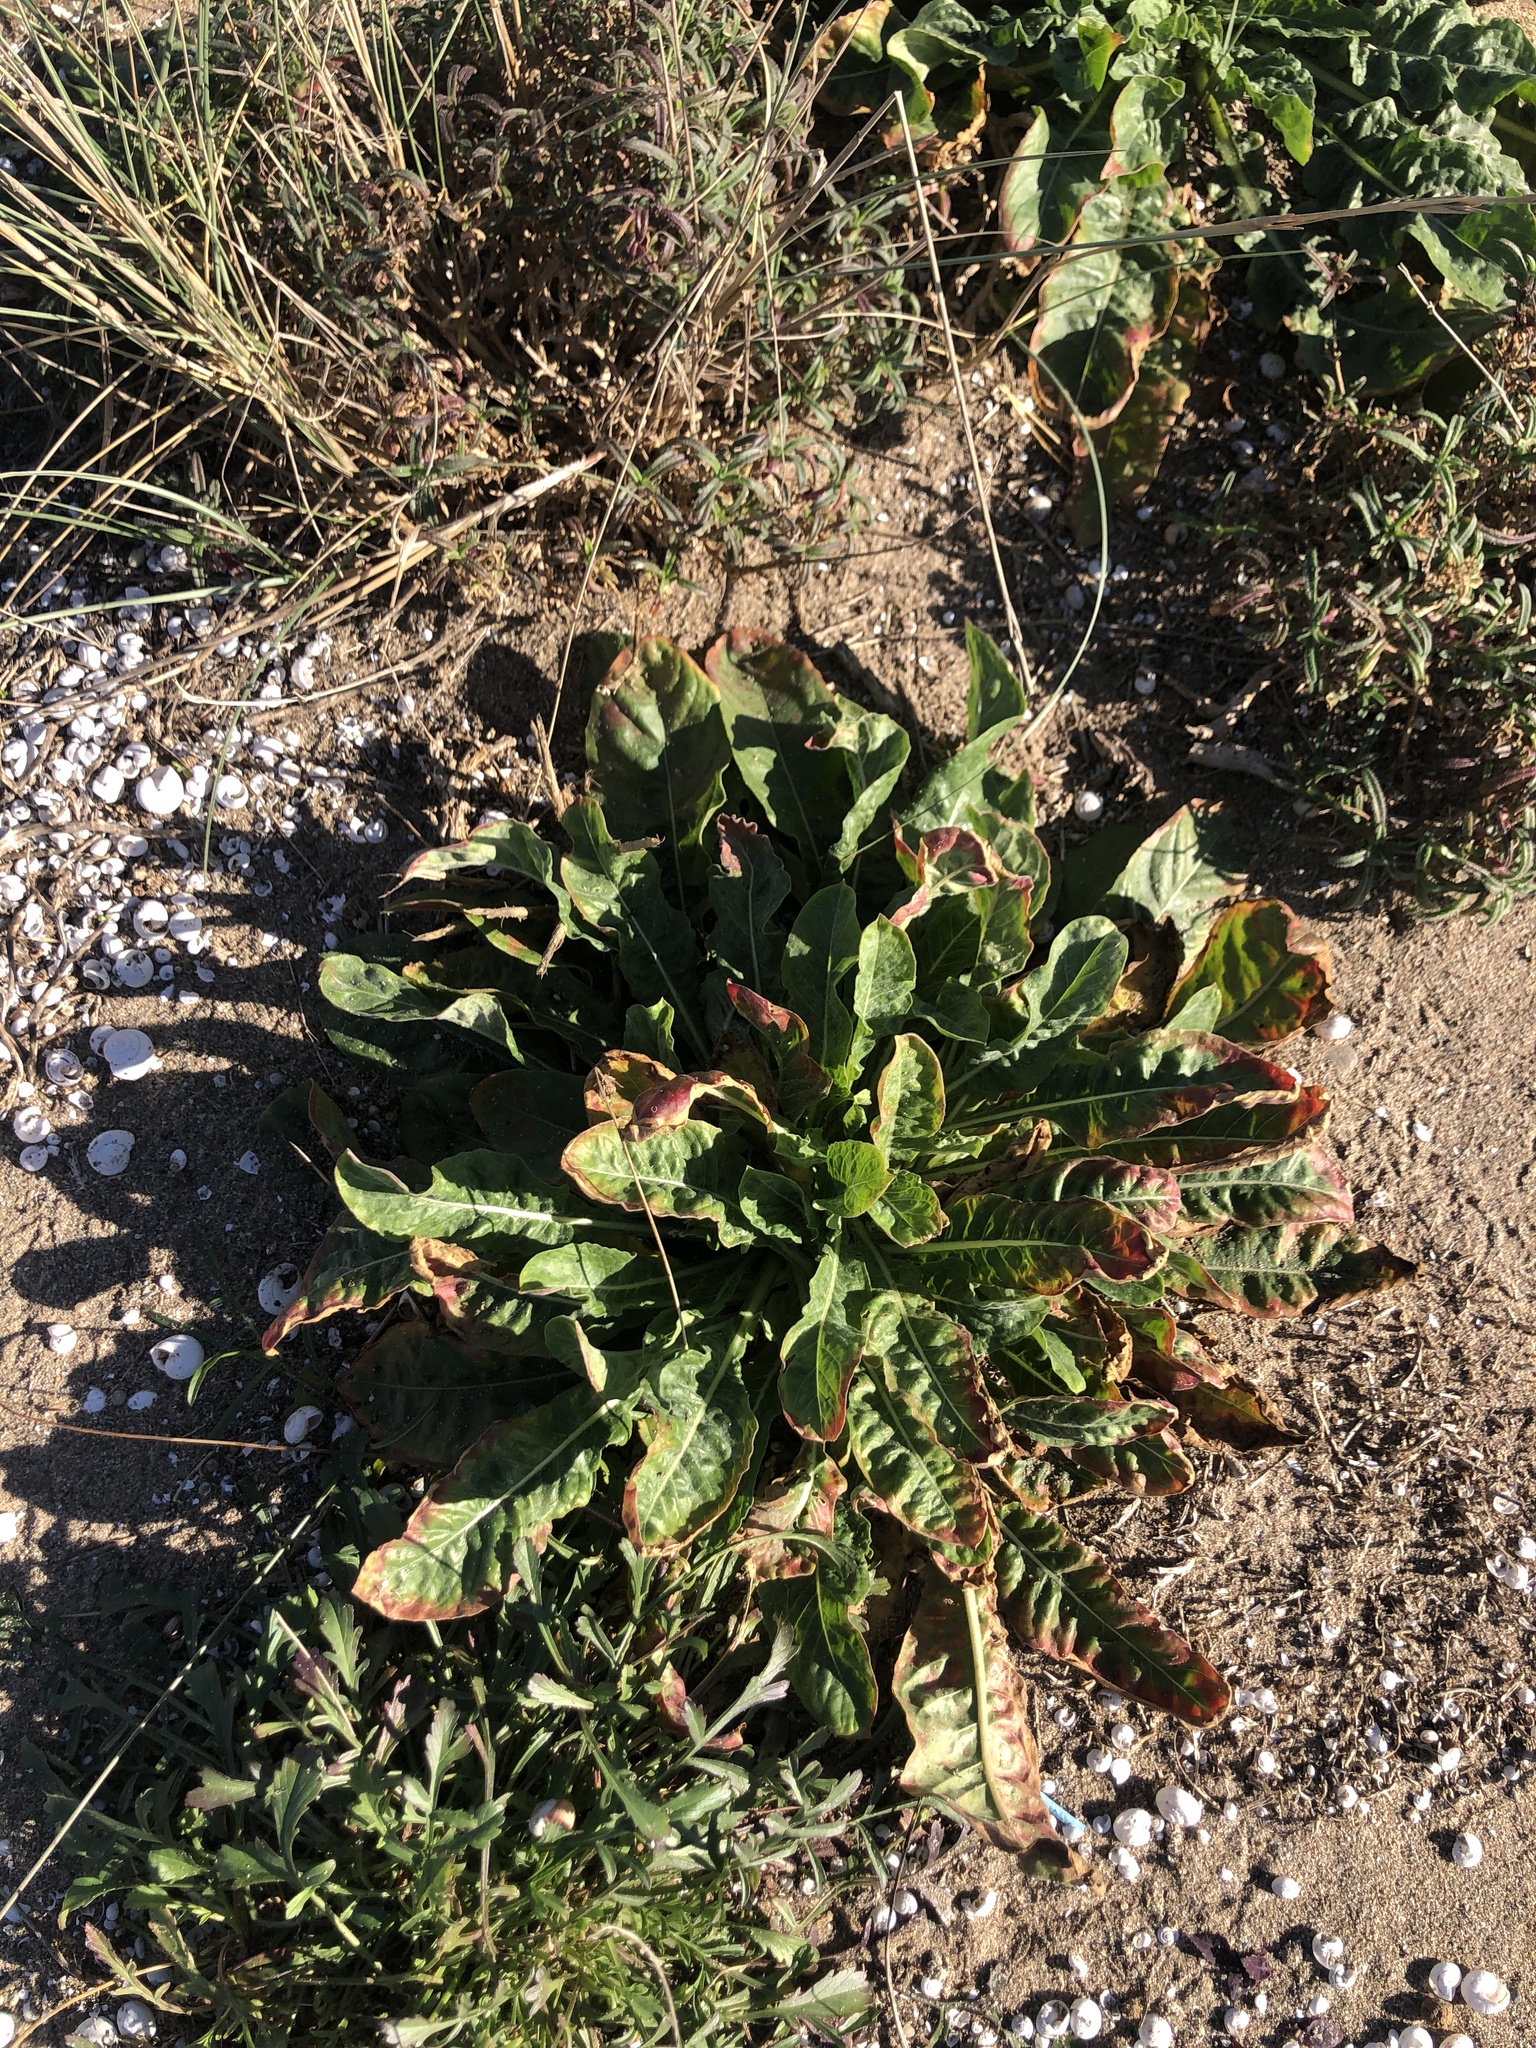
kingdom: Plantae
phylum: Tracheophyta
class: Magnoliopsida
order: Myrtales
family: Onagraceae
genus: Oenothera
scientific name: Oenothera glazioviana
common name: Large-flowered evening-primrose
